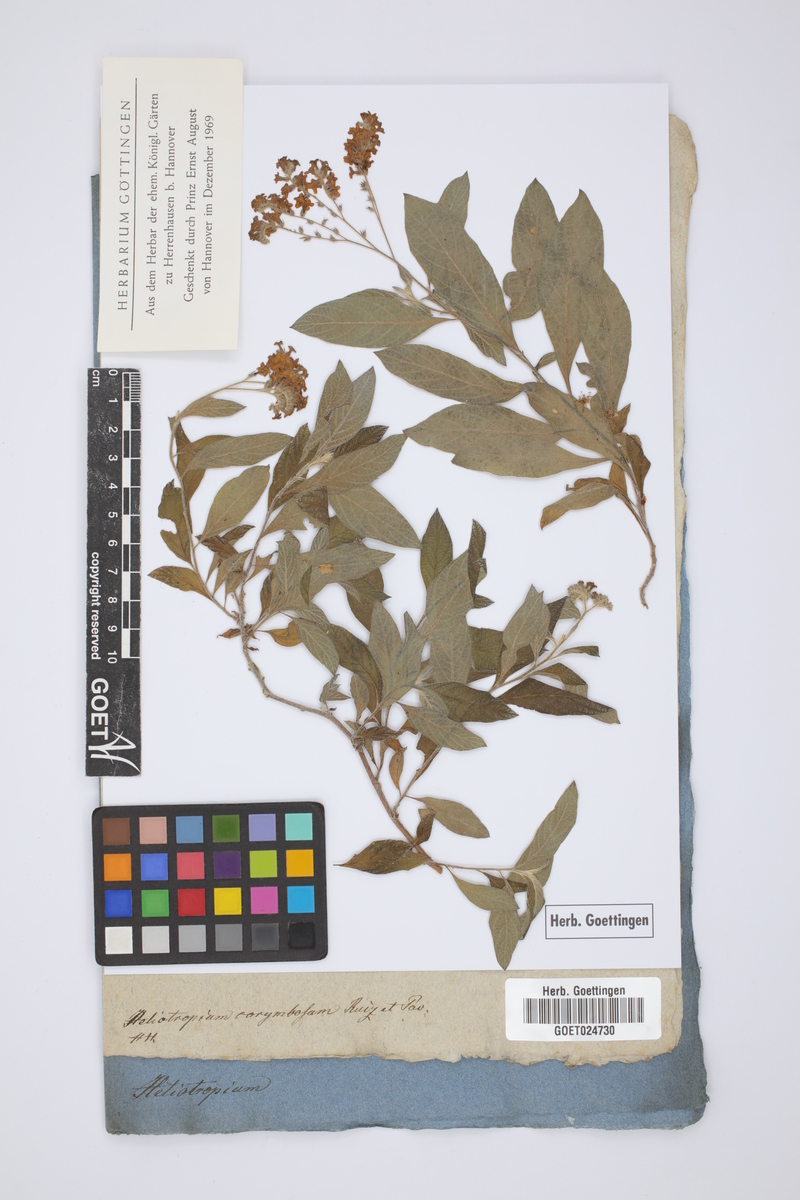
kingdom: Plantae
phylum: Tracheophyta
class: Magnoliopsida
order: Boraginales
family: Heliotropiaceae
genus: Heliotropium
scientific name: Heliotropium arborescens
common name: Cherry-pie
